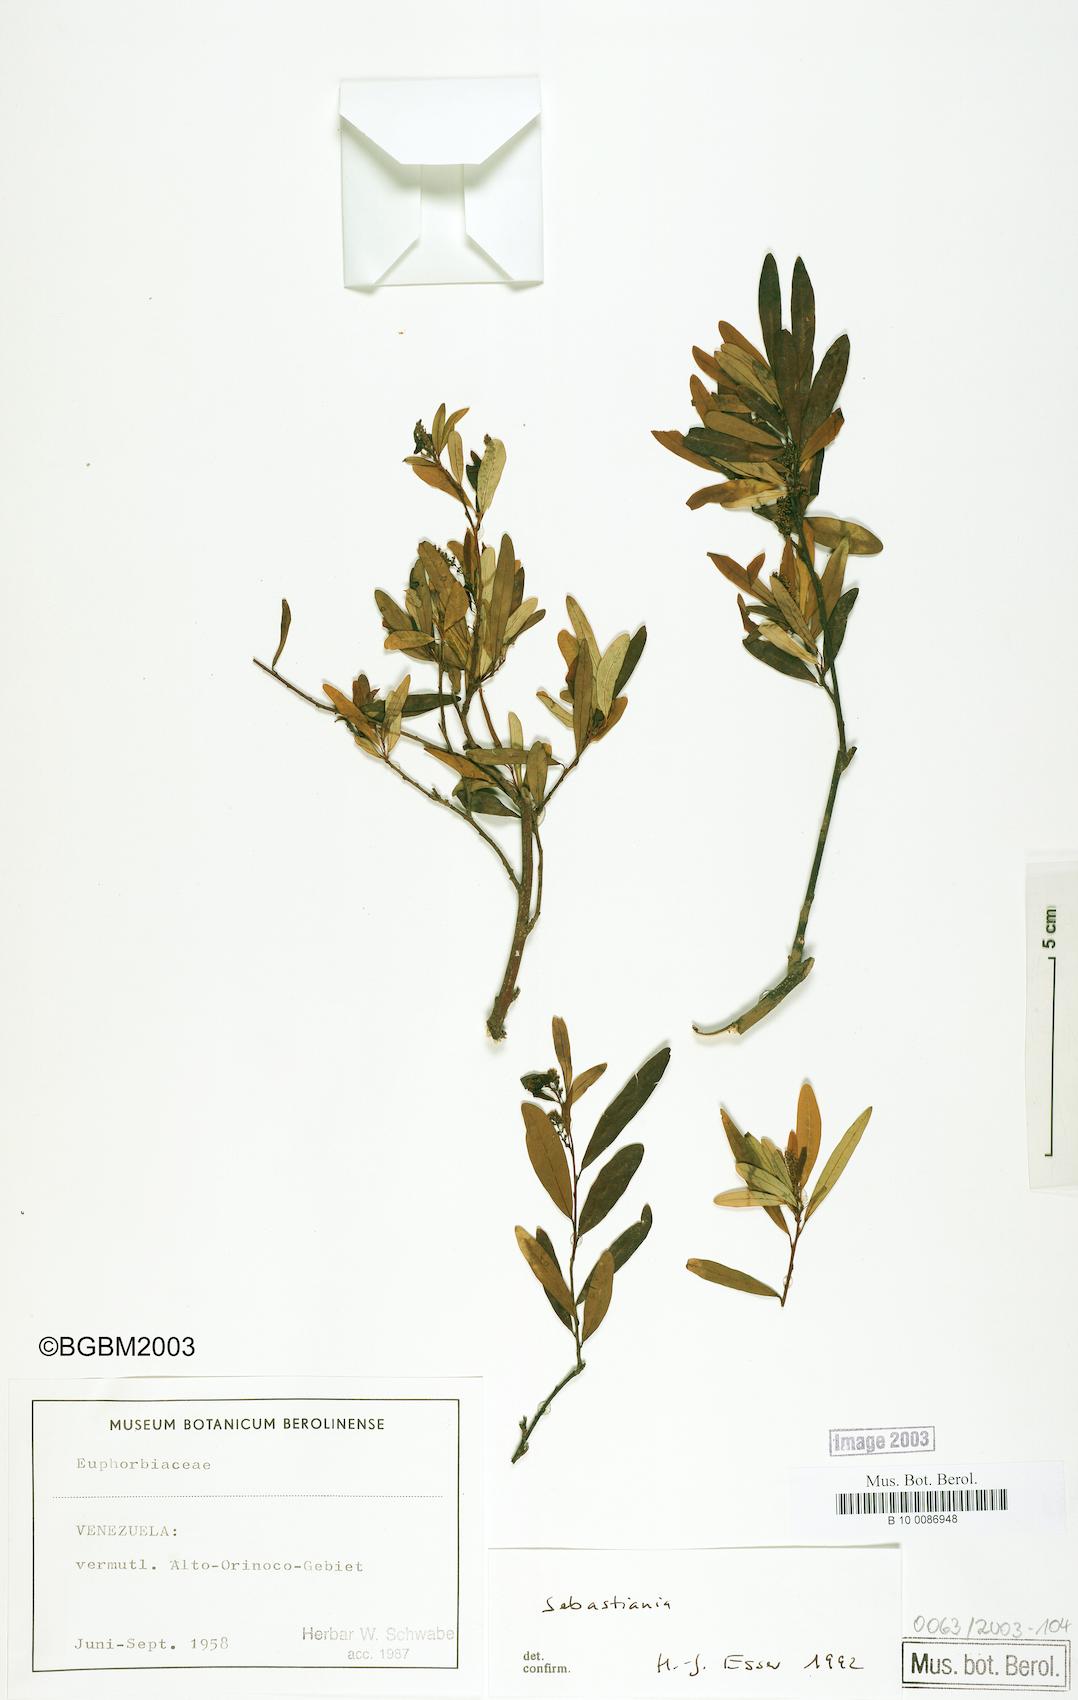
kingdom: Plantae
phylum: Tracheophyta
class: Magnoliopsida
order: Malpighiales
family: Euphorbiaceae
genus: Sebastiania
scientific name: Sebastiania schottiana
